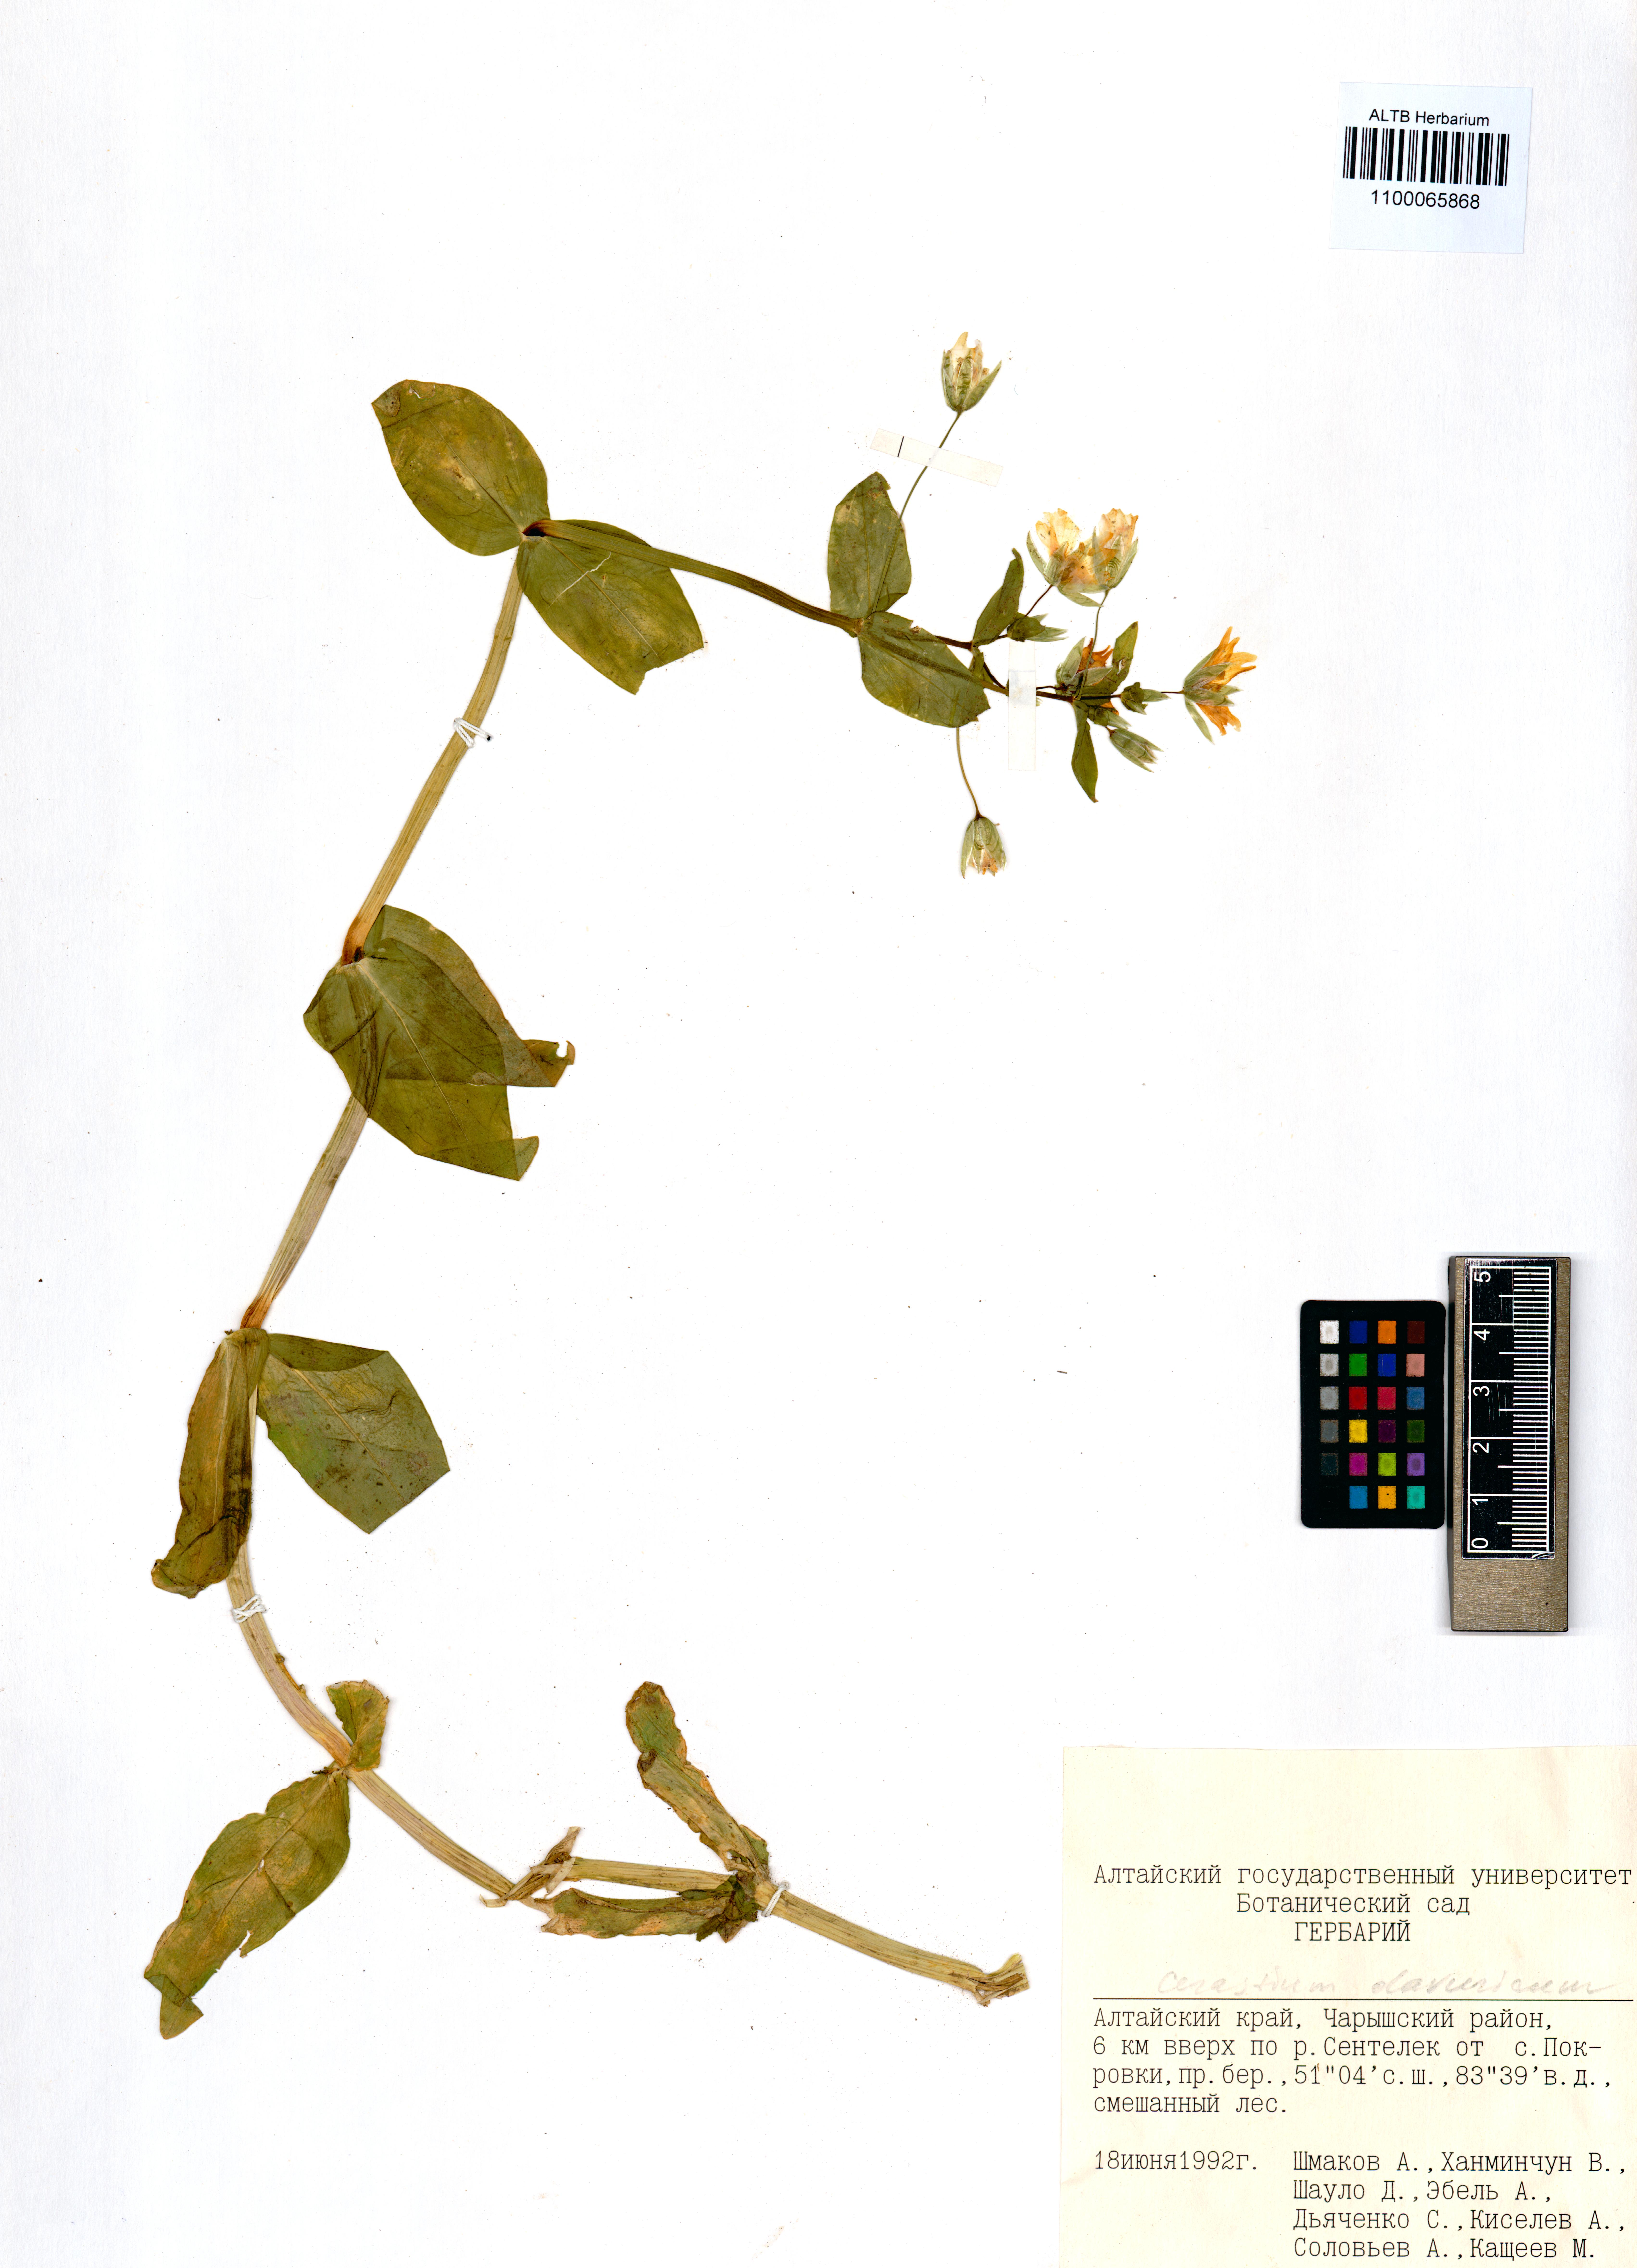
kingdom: Plantae
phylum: Tracheophyta
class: Magnoliopsida
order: Caryophyllales
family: Caryophyllaceae
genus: Cerastium
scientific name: Cerastium davuricum
